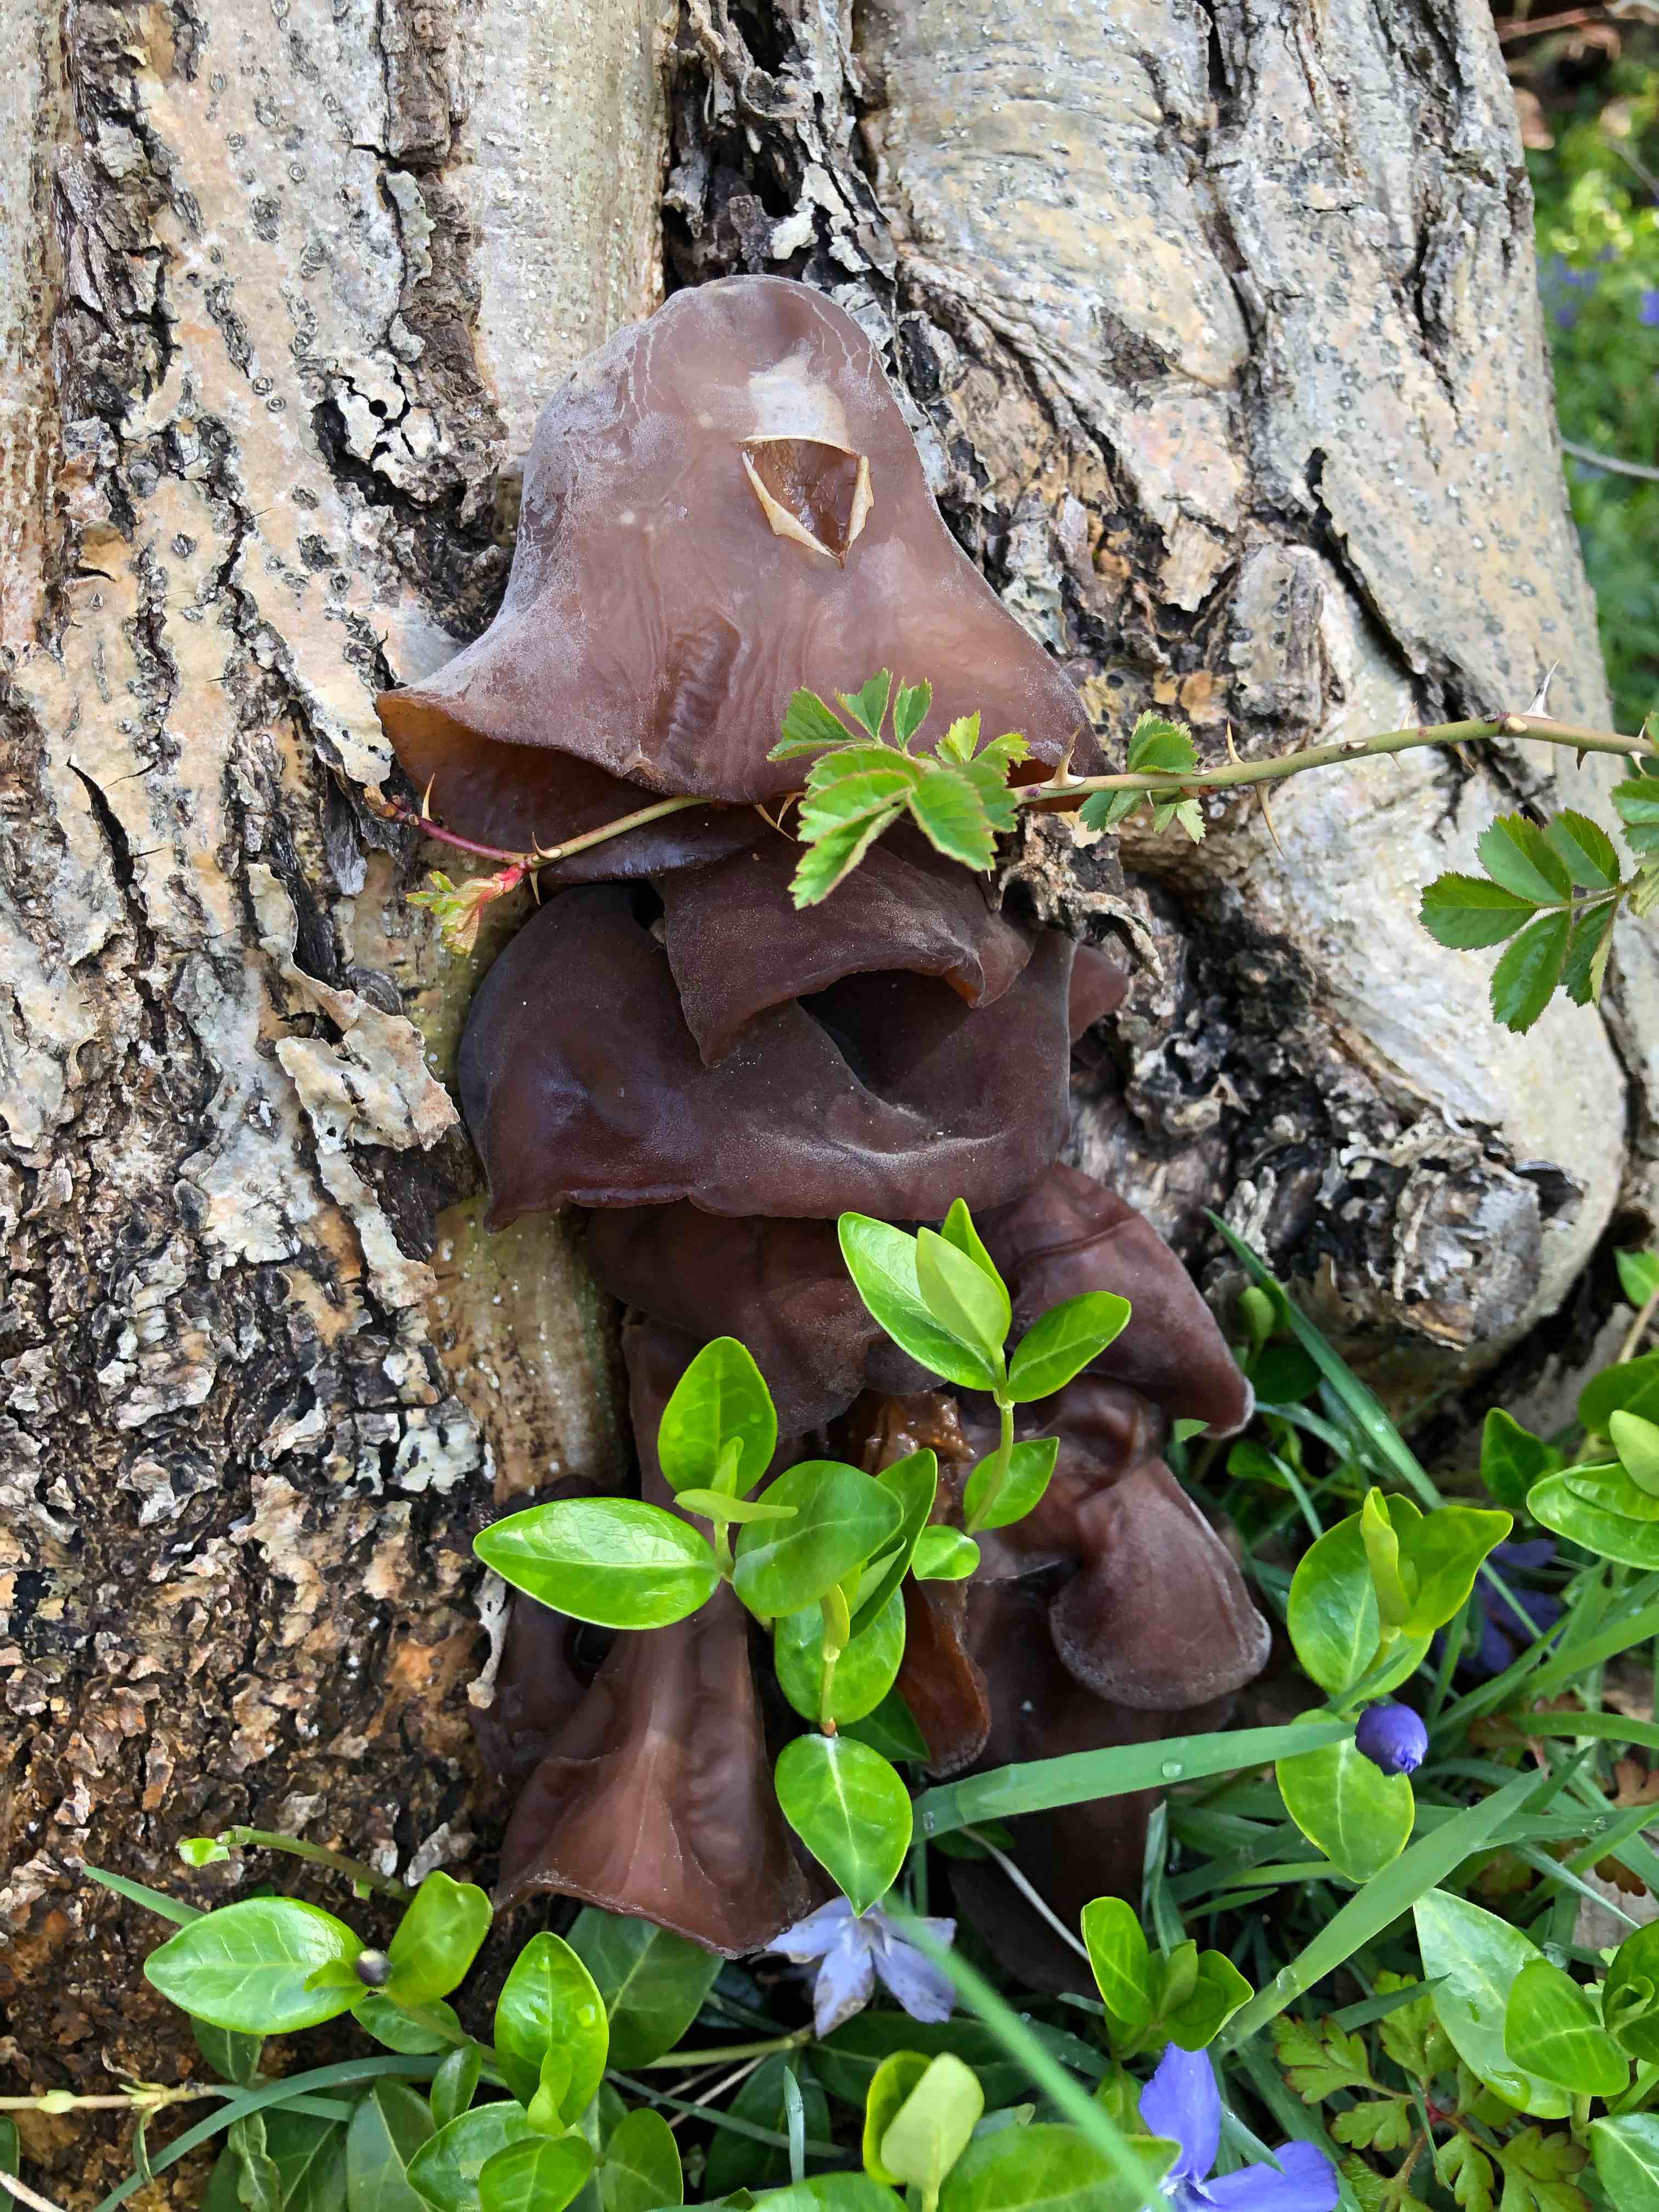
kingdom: Fungi
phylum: Basidiomycota
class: Agaricomycetes
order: Auriculariales
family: Auriculariaceae
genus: Auricularia
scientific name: Auricularia auricula-judae
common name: almindelig judasøre
